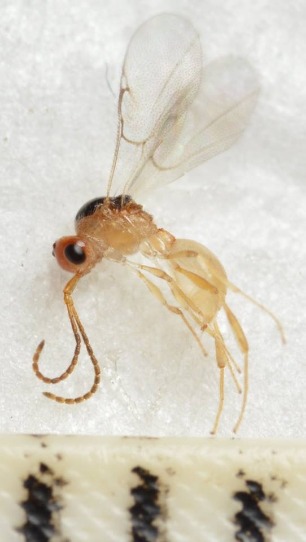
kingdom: Animalia
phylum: Arthropoda
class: Insecta
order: Hymenoptera
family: Diapriidae
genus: Ismarus
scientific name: Ismarus dorsiger
